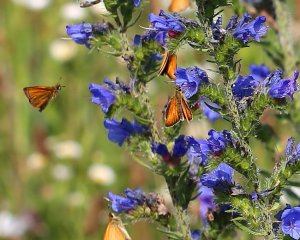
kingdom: Animalia
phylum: Arthropoda
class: Insecta
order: Lepidoptera
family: Hesperiidae
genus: Thymelicus
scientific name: Thymelicus lineola
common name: European Skipper
